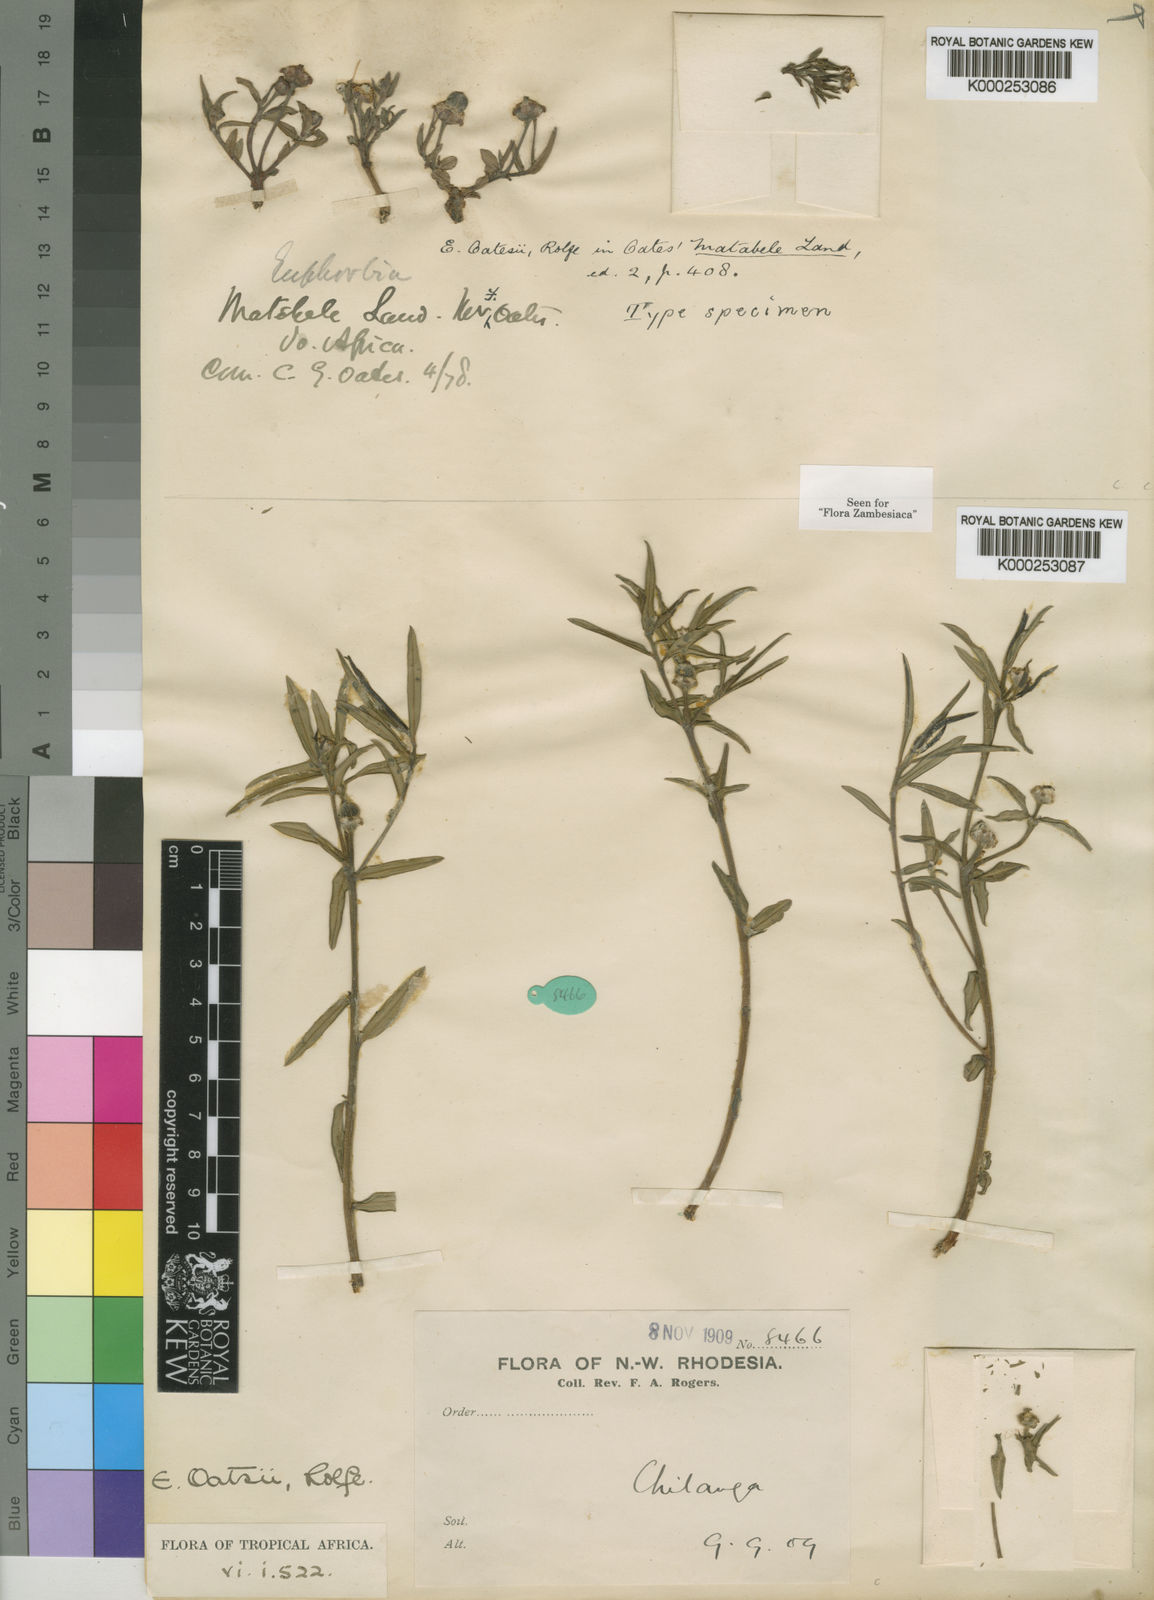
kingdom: Plantae
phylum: Tracheophyta
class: Magnoliopsida
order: Malpighiales
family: Euphorbiaceae
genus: Euphorbia
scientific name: Euphorbia oatesii
